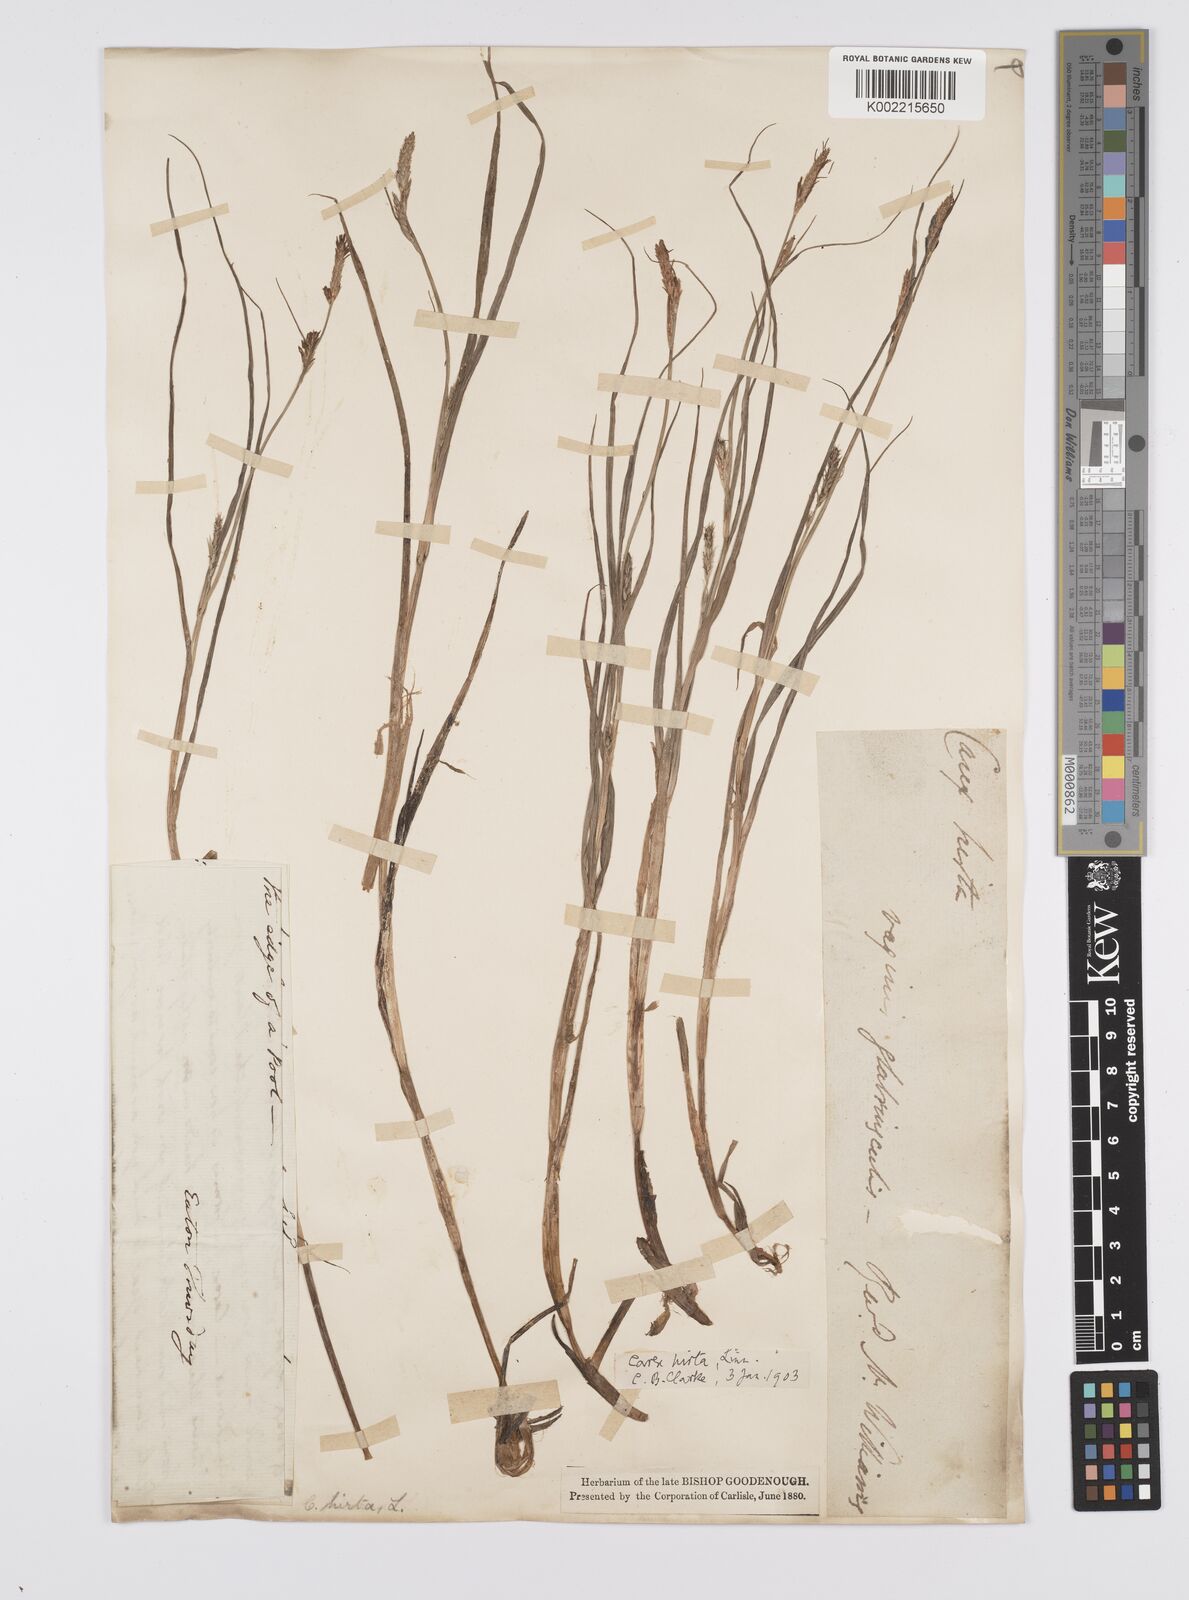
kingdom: Plantae
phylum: Tracheophyta
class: Liliopsida
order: Poales
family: Cyperaceae
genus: Carex
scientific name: Carex hirta
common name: Hairy sedge
